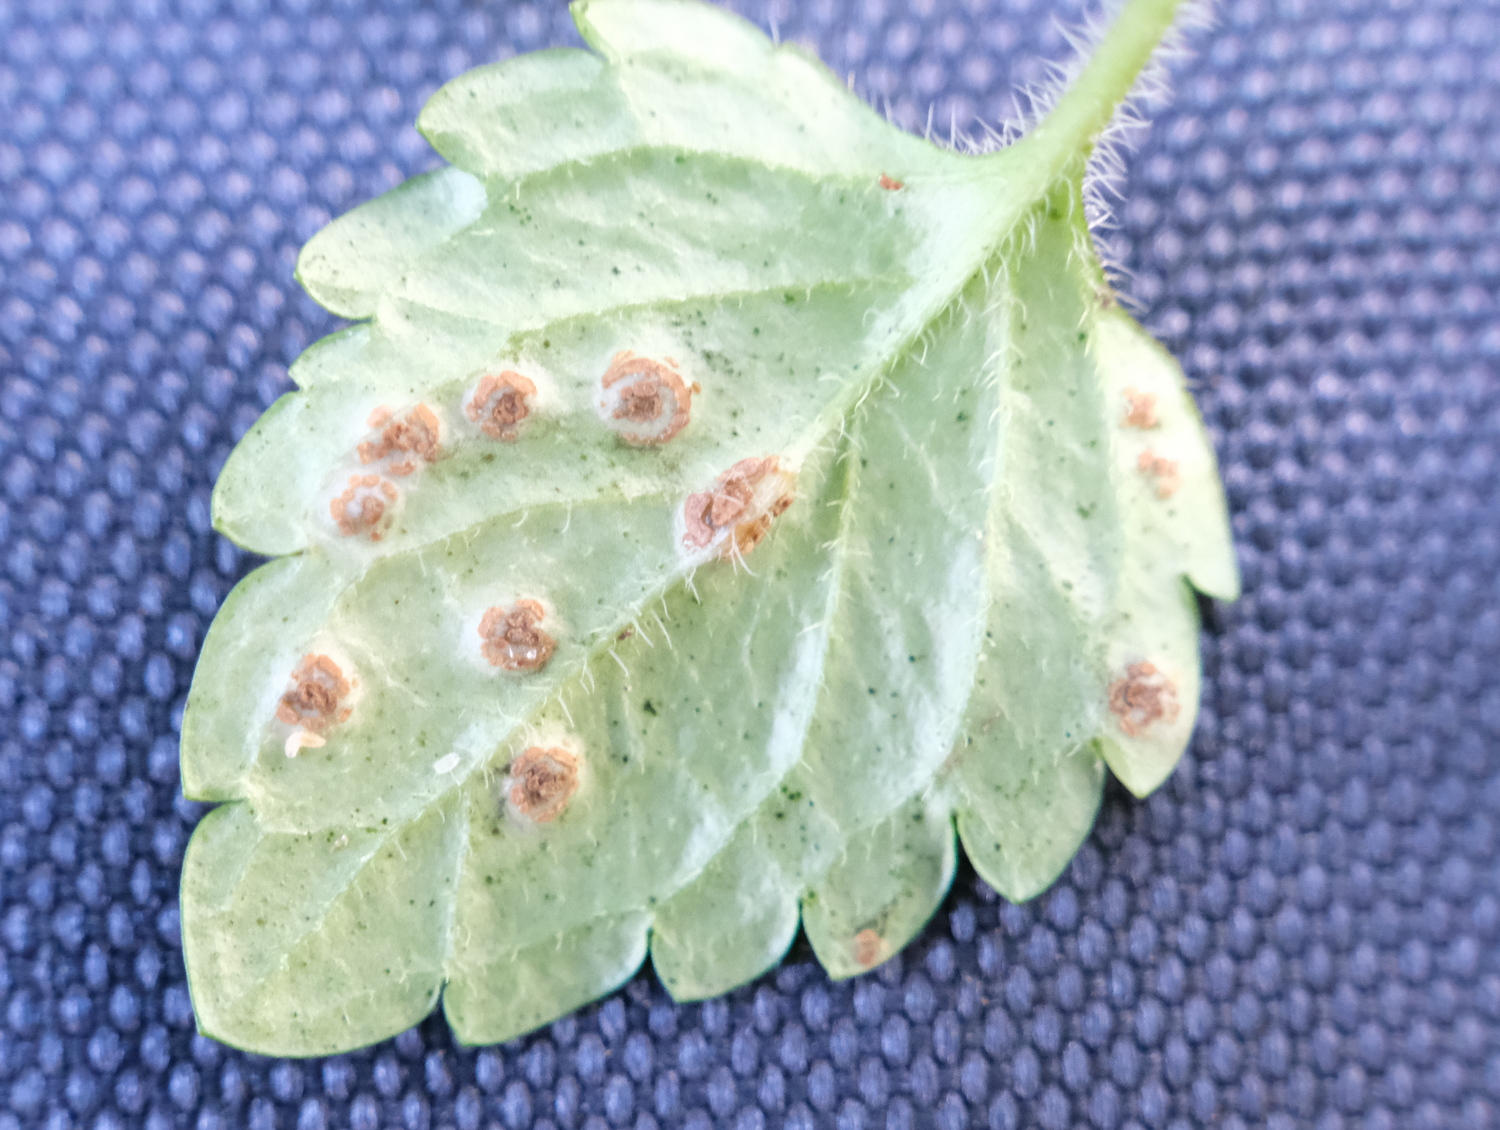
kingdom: Fungi
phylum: Basidiomycota
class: Pucciniomycetes
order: Pucciniales
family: Pucciniaceae
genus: Puccinia
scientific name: Puccinia
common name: tvecellerust
